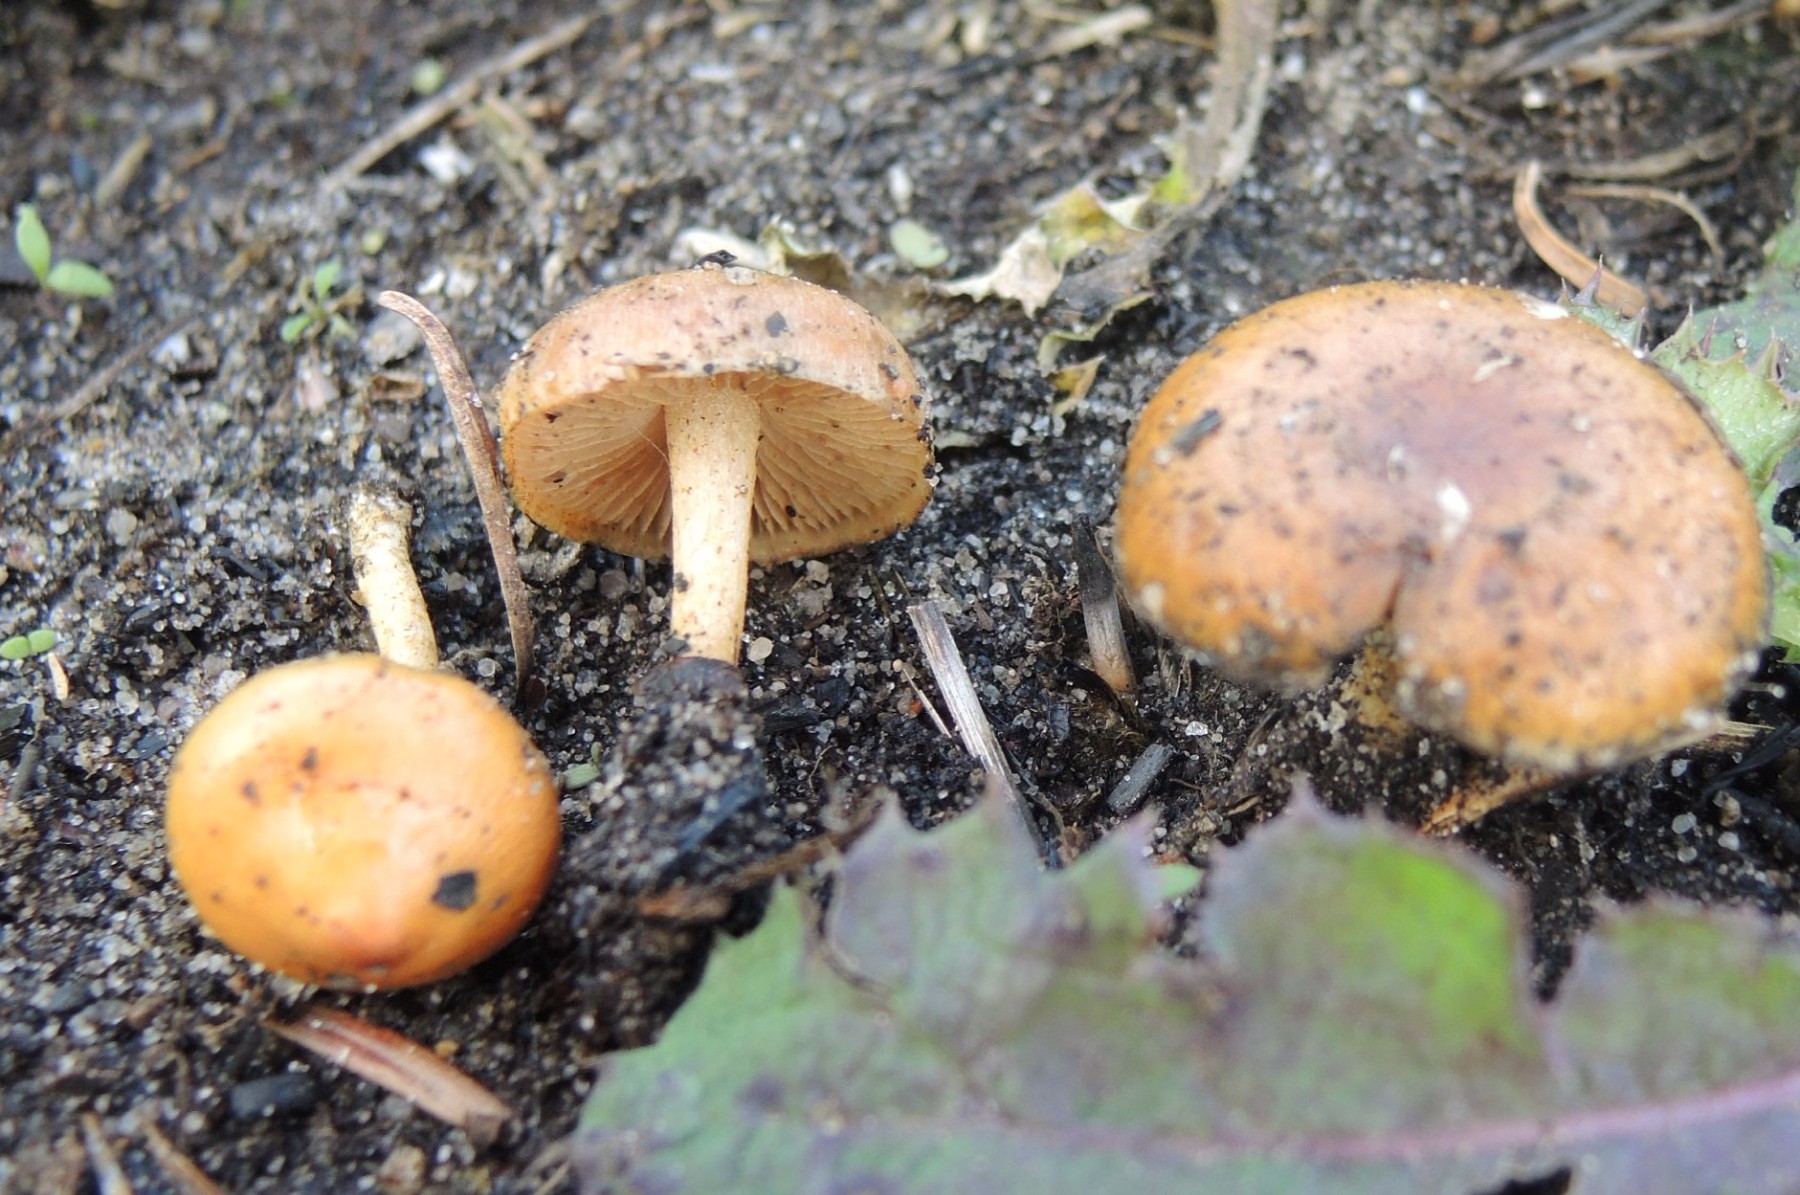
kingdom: Fungi
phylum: Basidiomycota
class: Agaricomycetes
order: Agaricales
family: Strophariaceae
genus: Pholiota
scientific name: Pholiota carbonaria
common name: kul-skælhat
